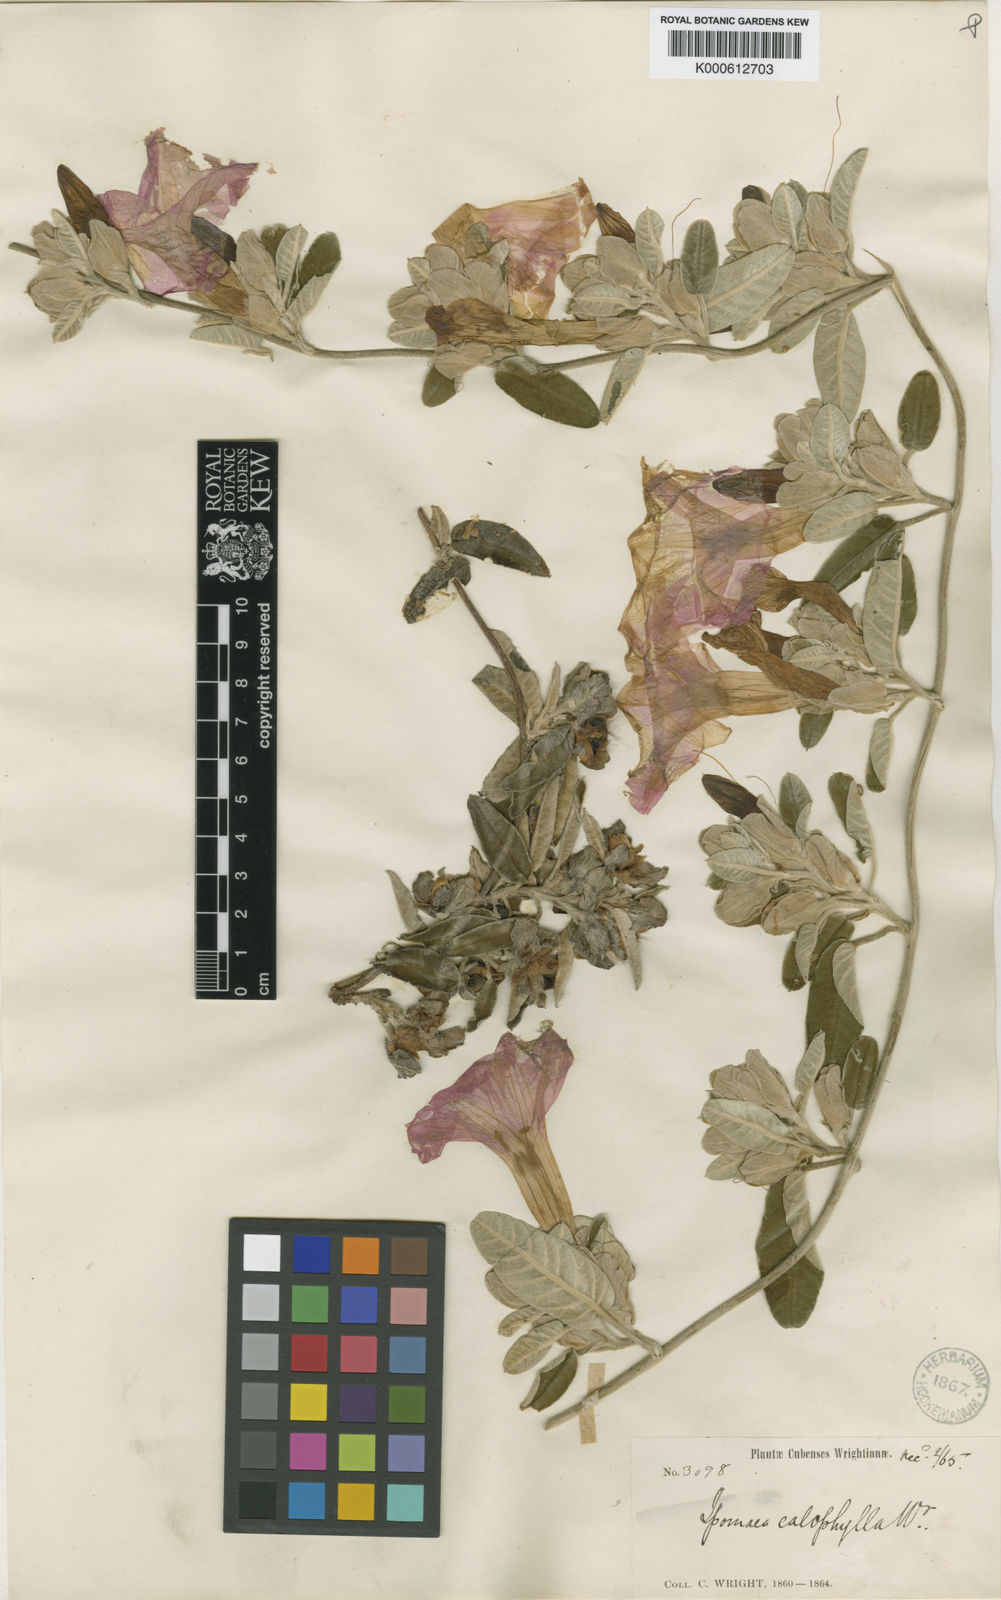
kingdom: Plantae
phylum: Tracheophyta
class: Magnoliopsida
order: Solanales
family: Convolvulaceae
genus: Ipomoea
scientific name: Ipomoea calophylla
